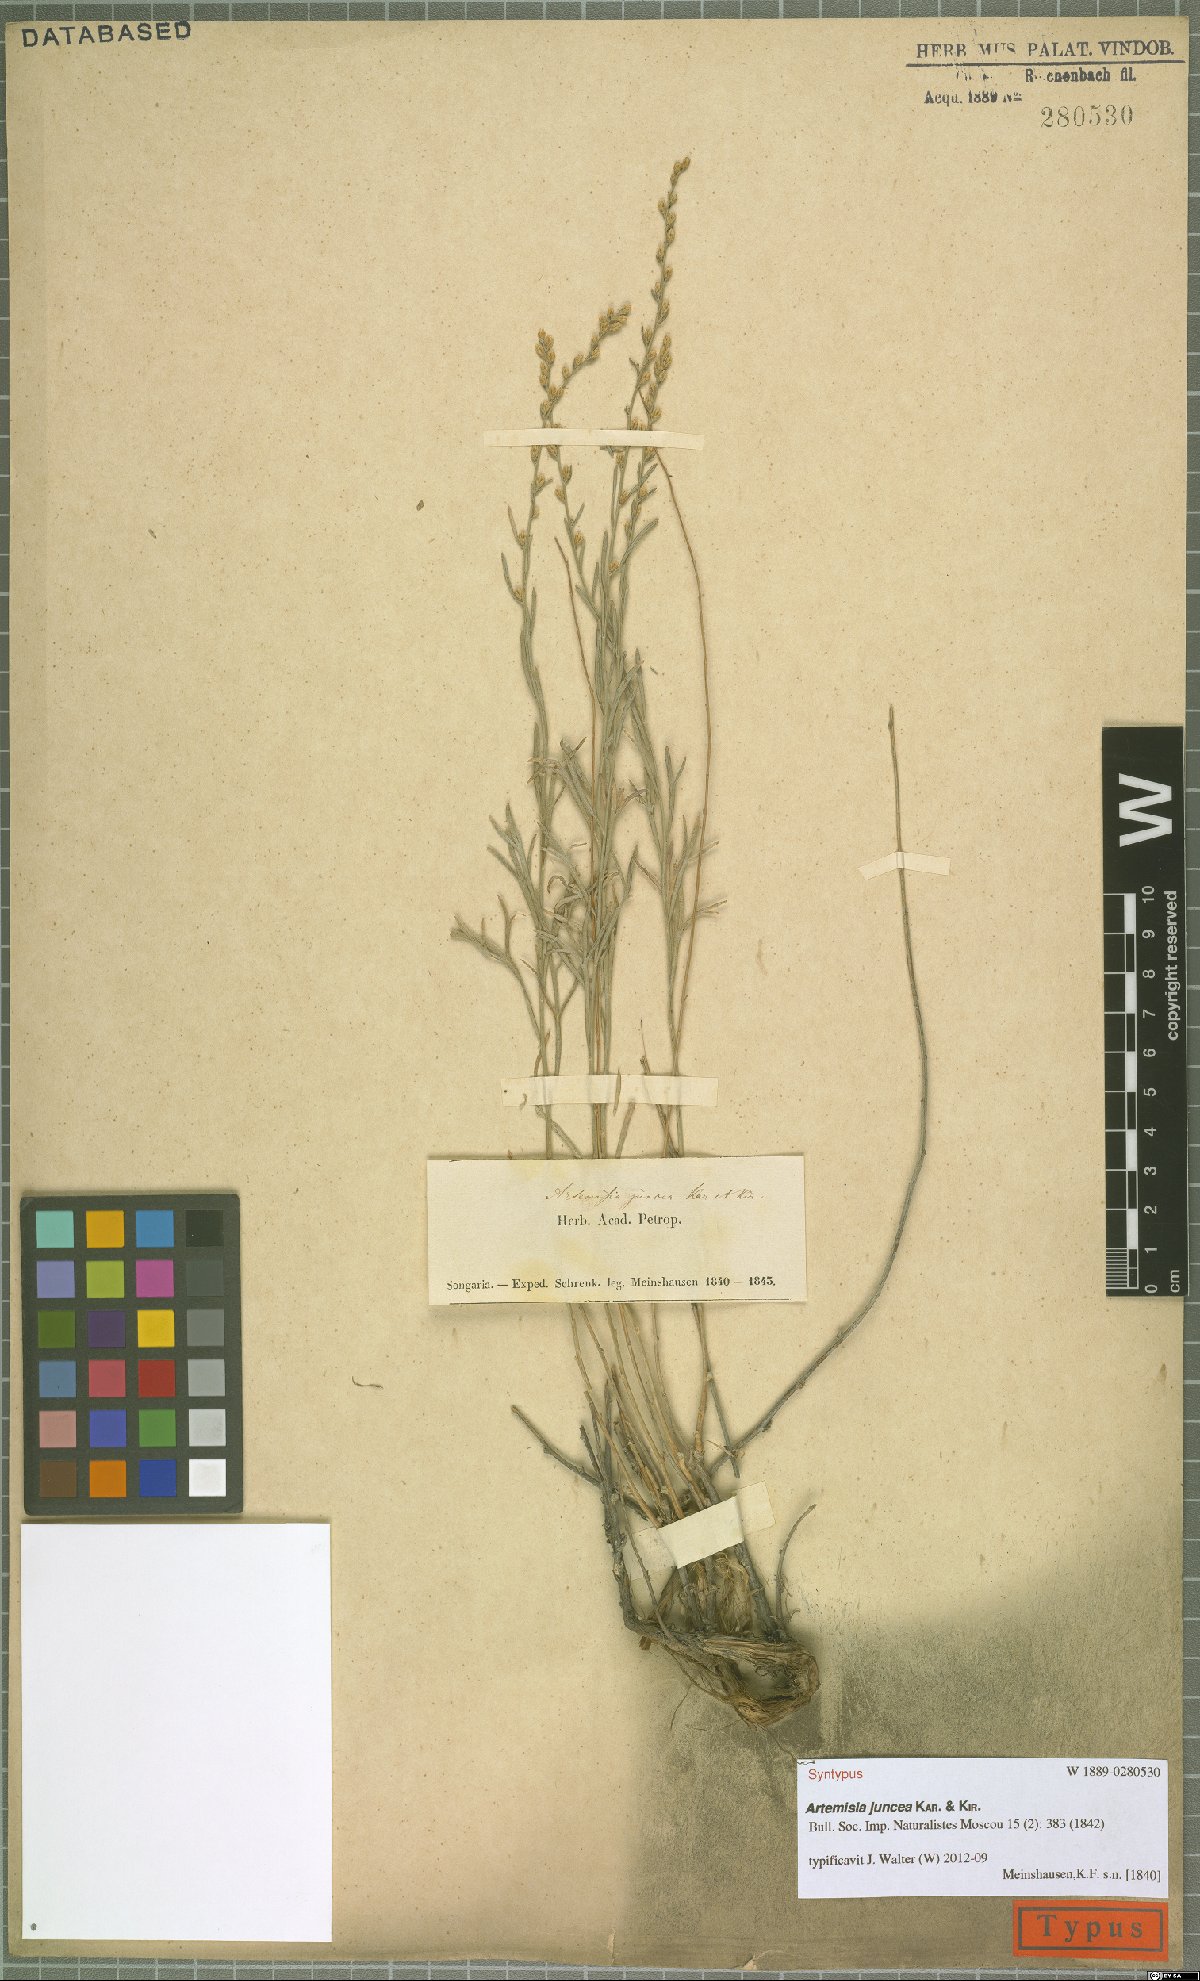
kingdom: Plantae
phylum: Tracheophyta
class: Magnoliopsida
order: Asterales
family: Asteraceae
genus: Artemisia
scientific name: Artemisia juncea
